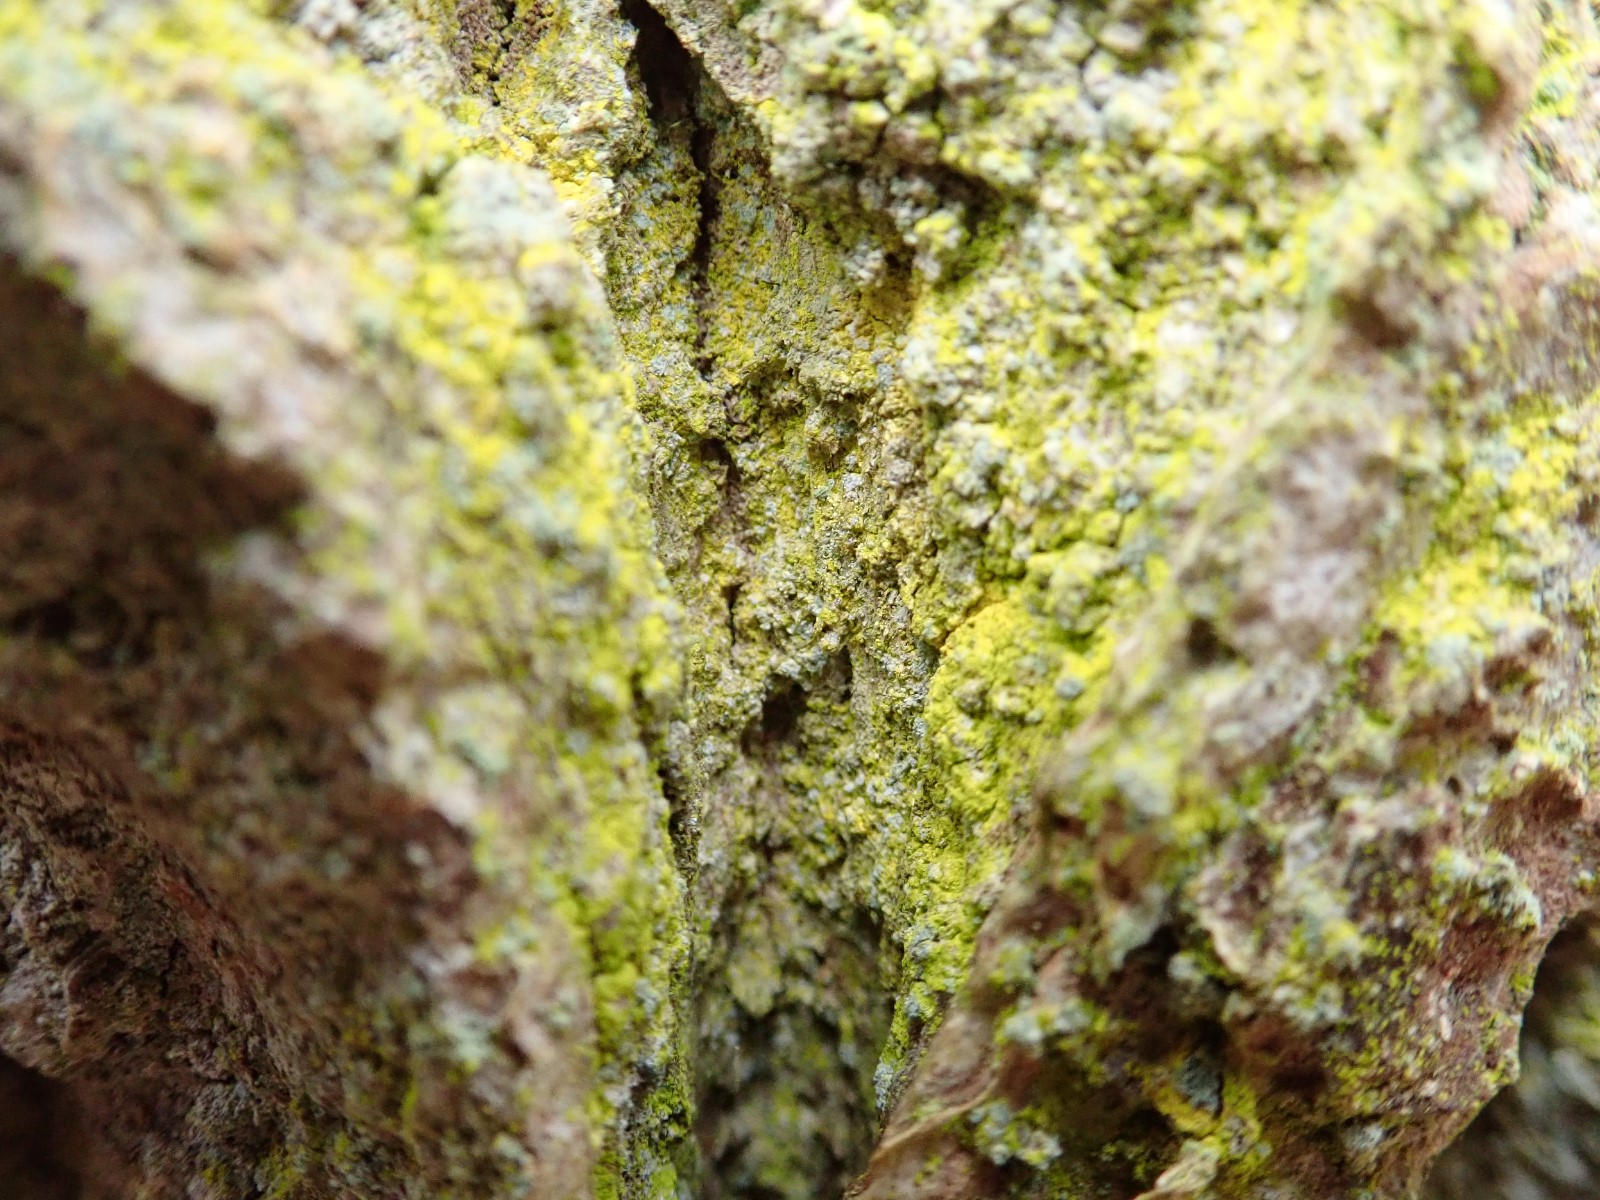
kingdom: Fungi
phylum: Ascomycota
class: Arthoniomycetes
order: Arthoniales
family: Chrysotrichaceae
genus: Chrysothrix
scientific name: Chrysothrix candelaris
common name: gul støvlav
